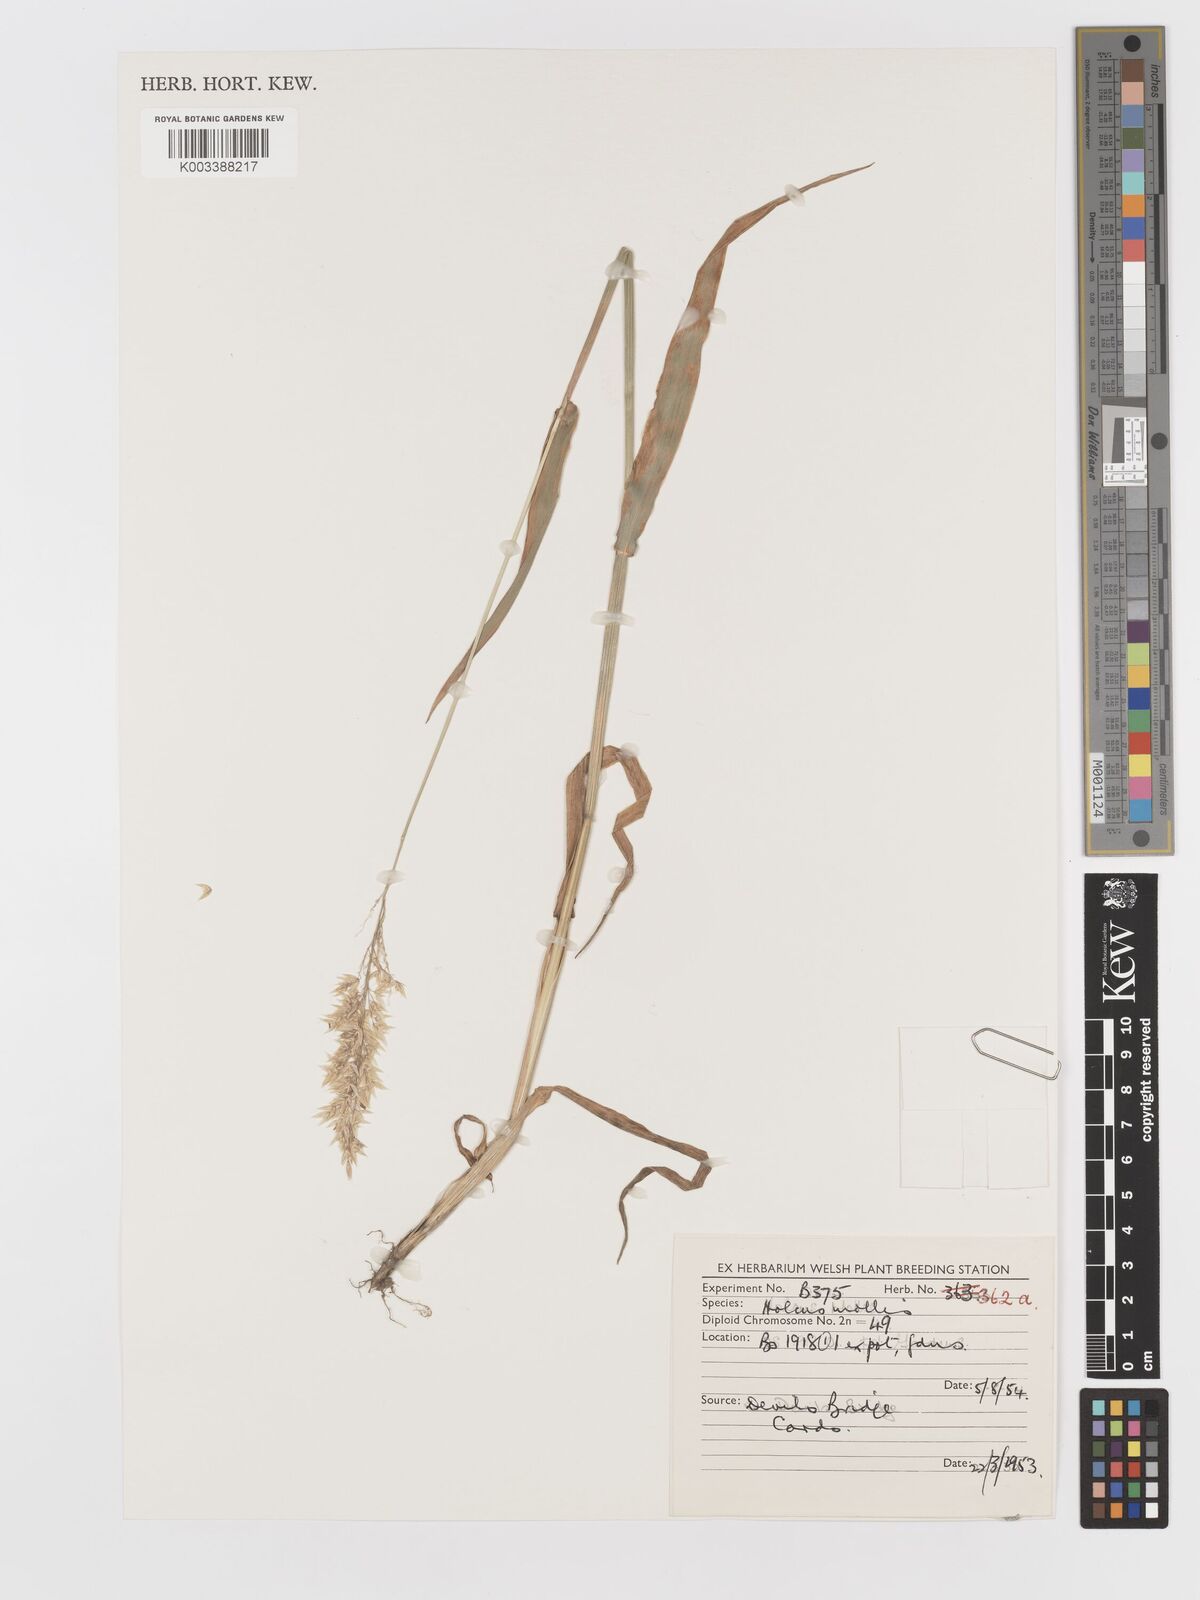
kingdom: Plantae
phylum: Tracheophyta
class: Liliopsida
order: Poales
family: Poaceae
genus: Holcus
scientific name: Holcus mollis
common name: Creeping velvetgrass
